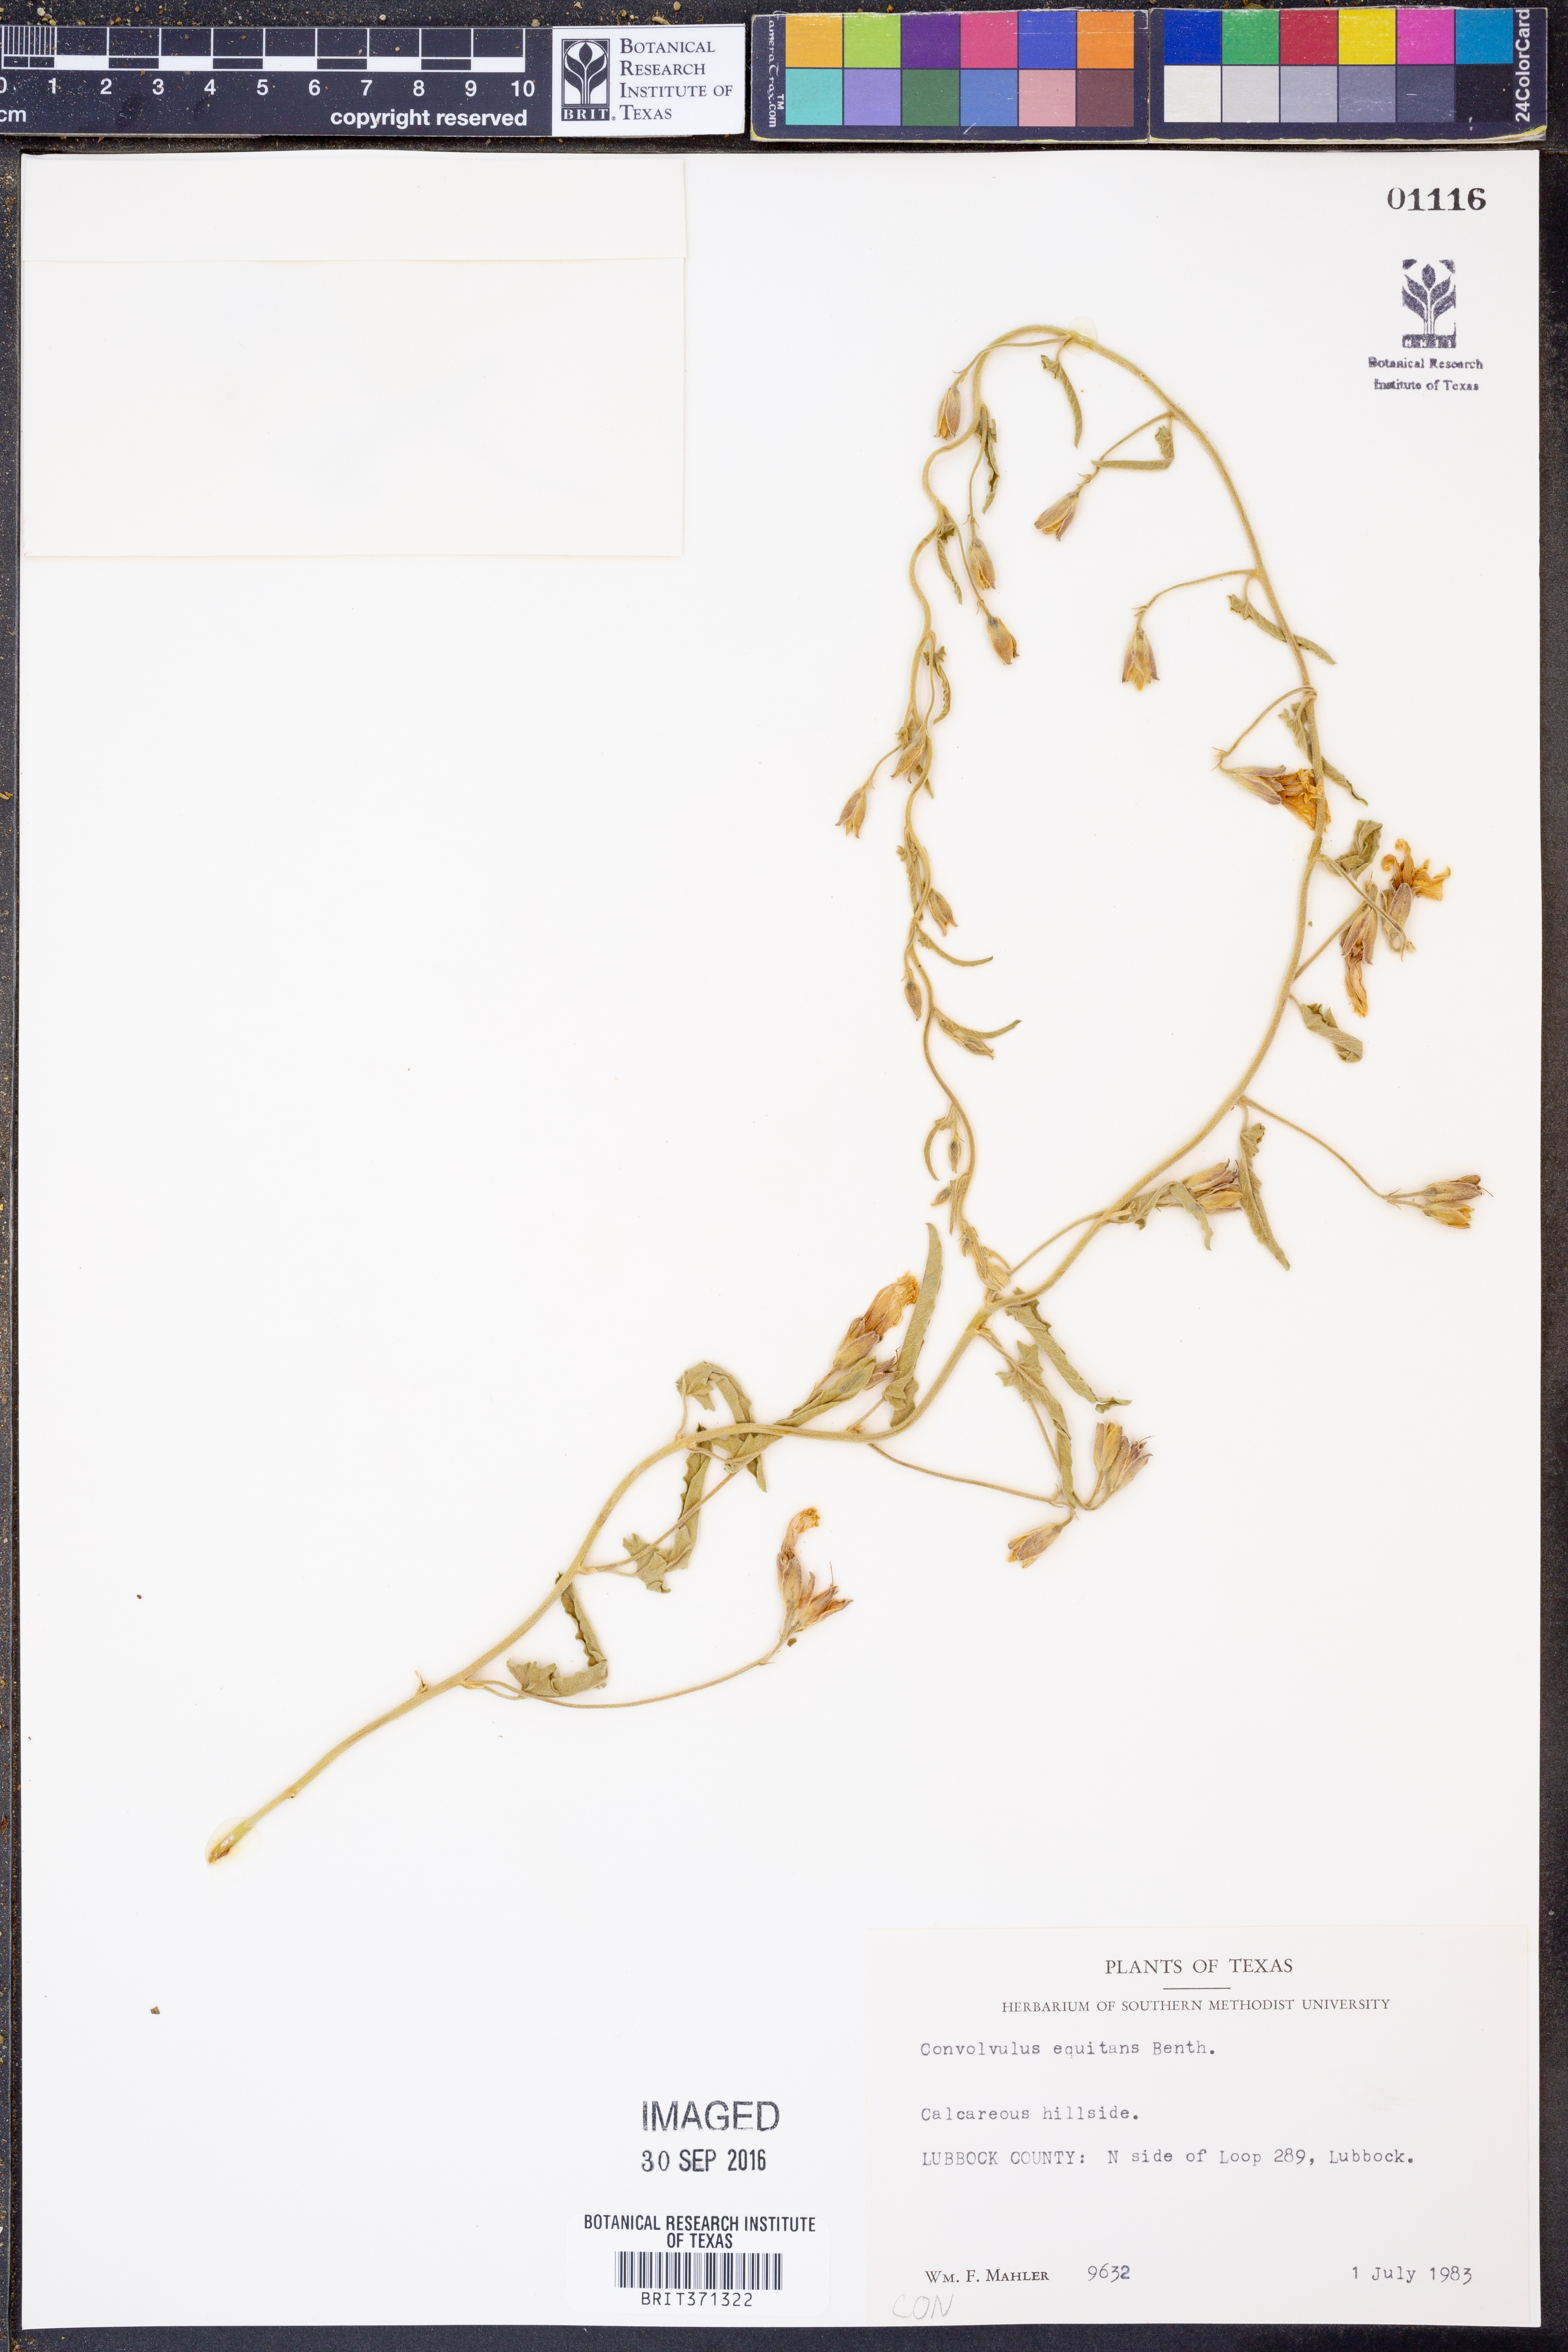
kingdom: Plantae
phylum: Tracheophyta
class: Magnoliopsida
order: Solanales
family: Convolvulaceae
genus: Convolvulus
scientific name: Convolvulus equitans
